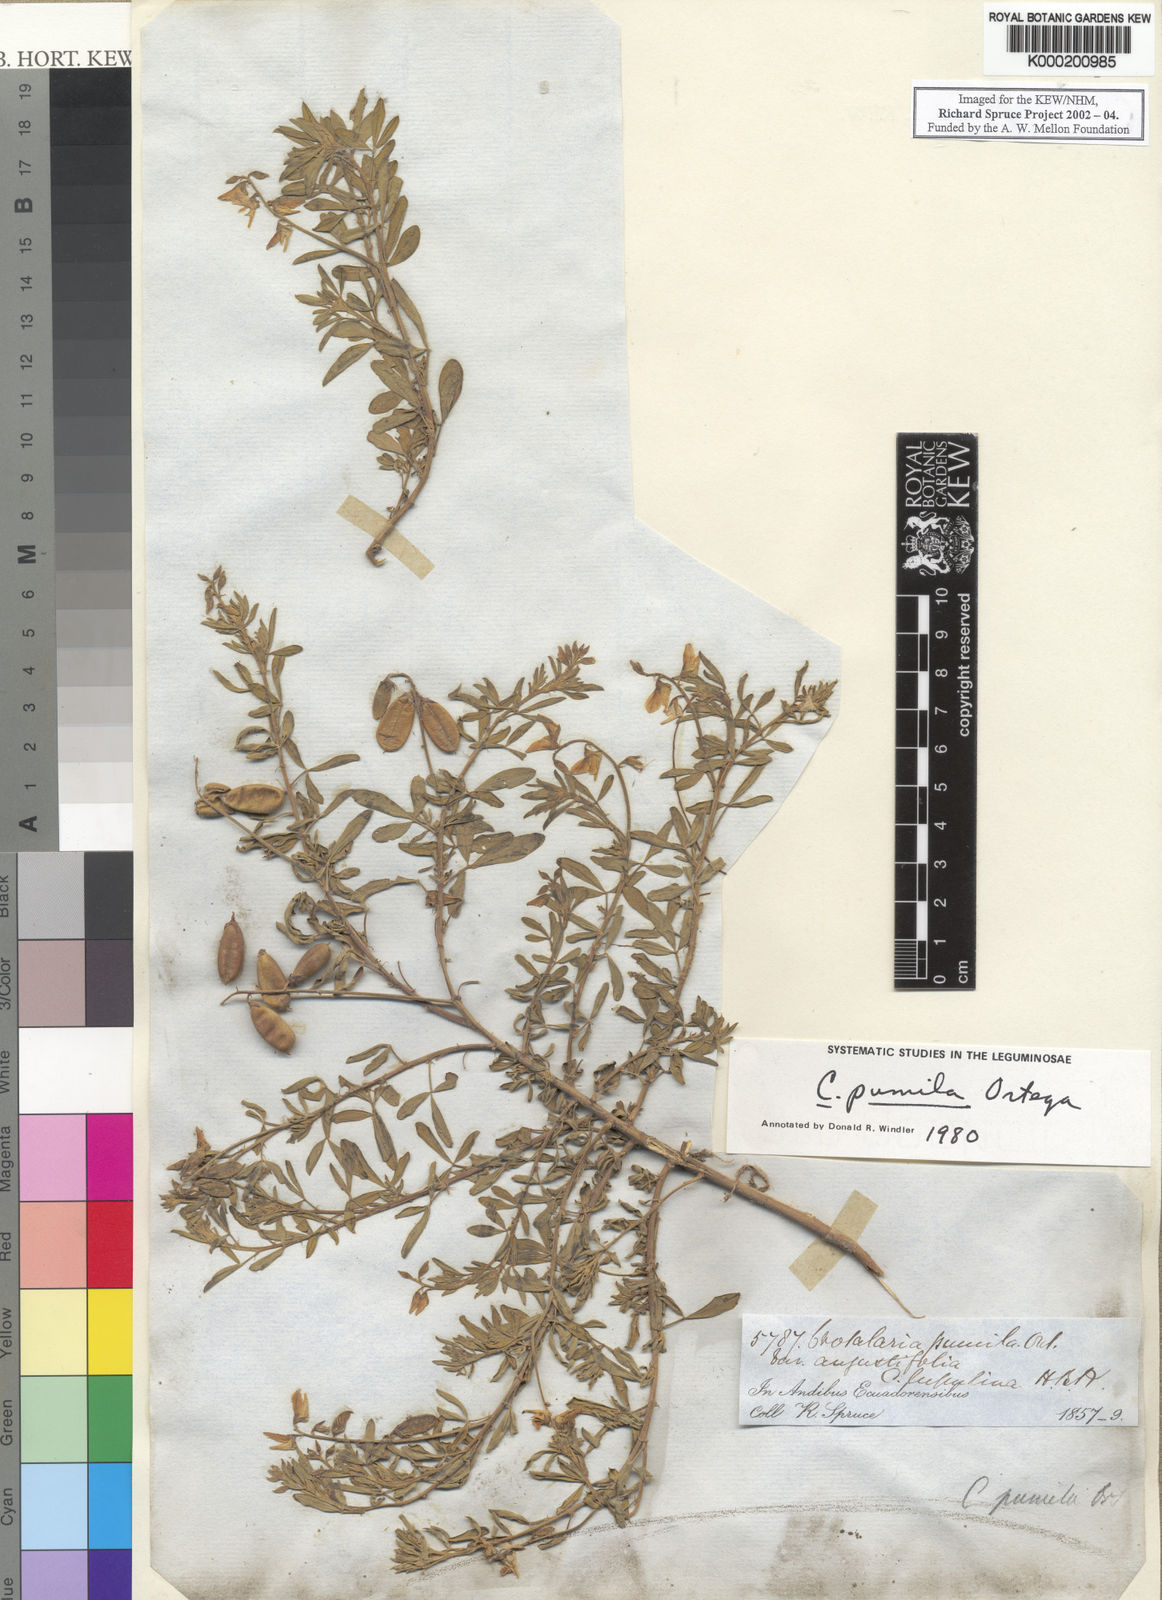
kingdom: Plantae
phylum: Tracheophyta
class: Magnoliopsida
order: Fabales
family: Fabaceae
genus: Crotalaria
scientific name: Crotalaria pumila
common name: Low rattlebox
